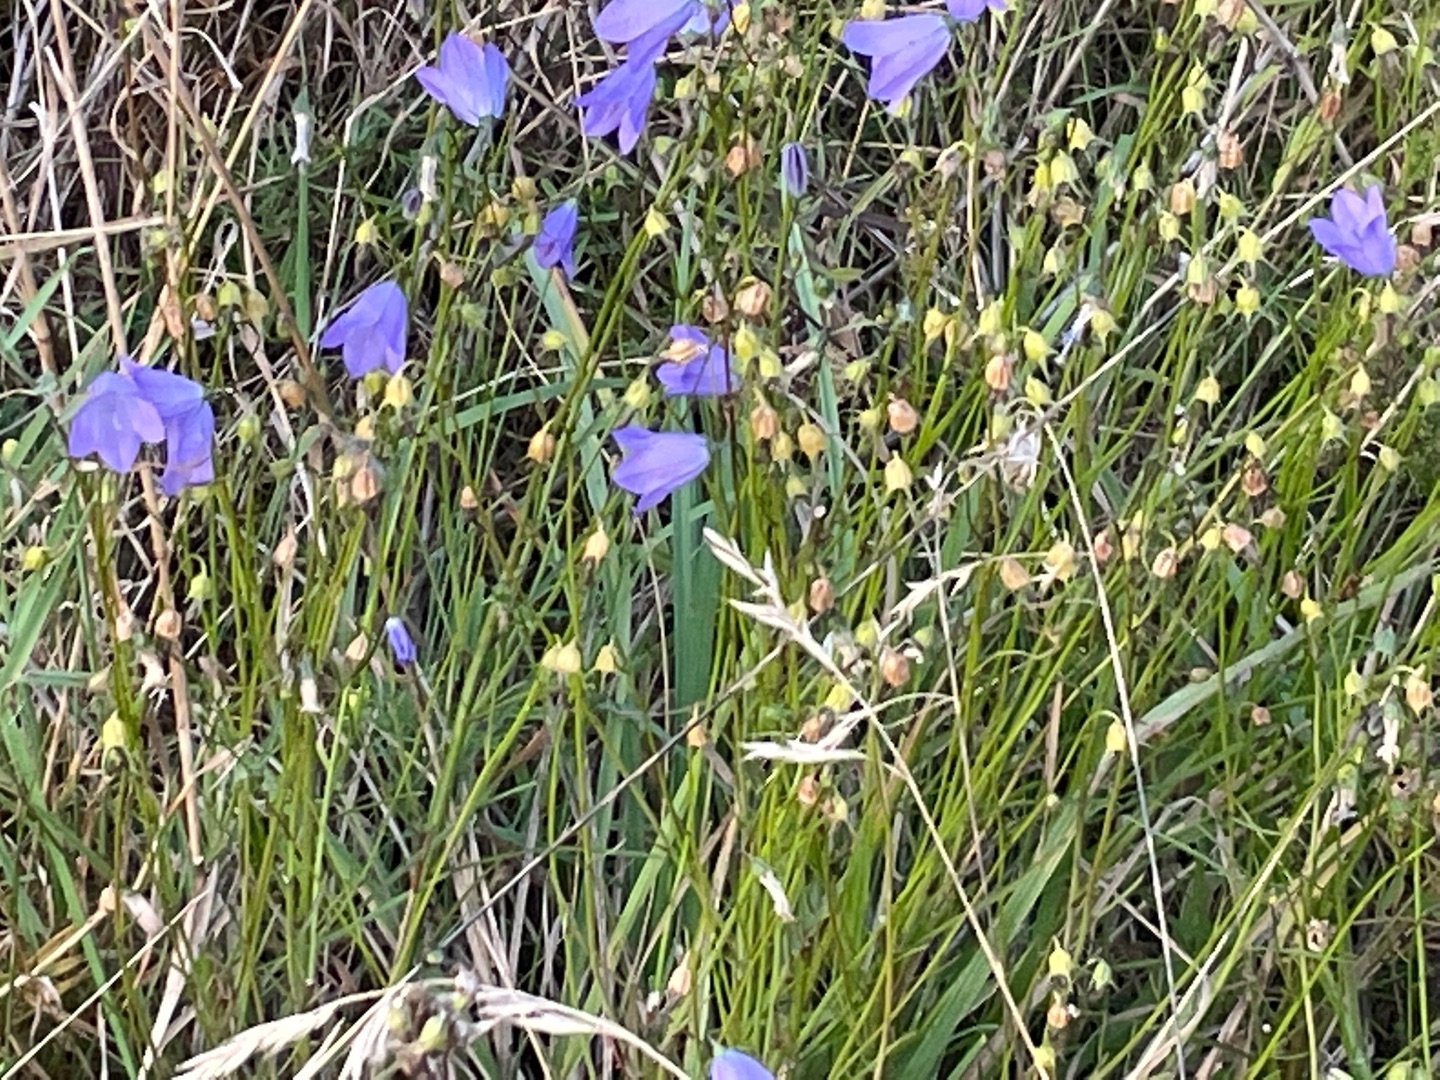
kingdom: Plantae
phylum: Tracheophyta
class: Magnoliopsida
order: Asterales
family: Campanulaceae
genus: Campanula
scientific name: Campanula rotundifolia
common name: Liden klokke
